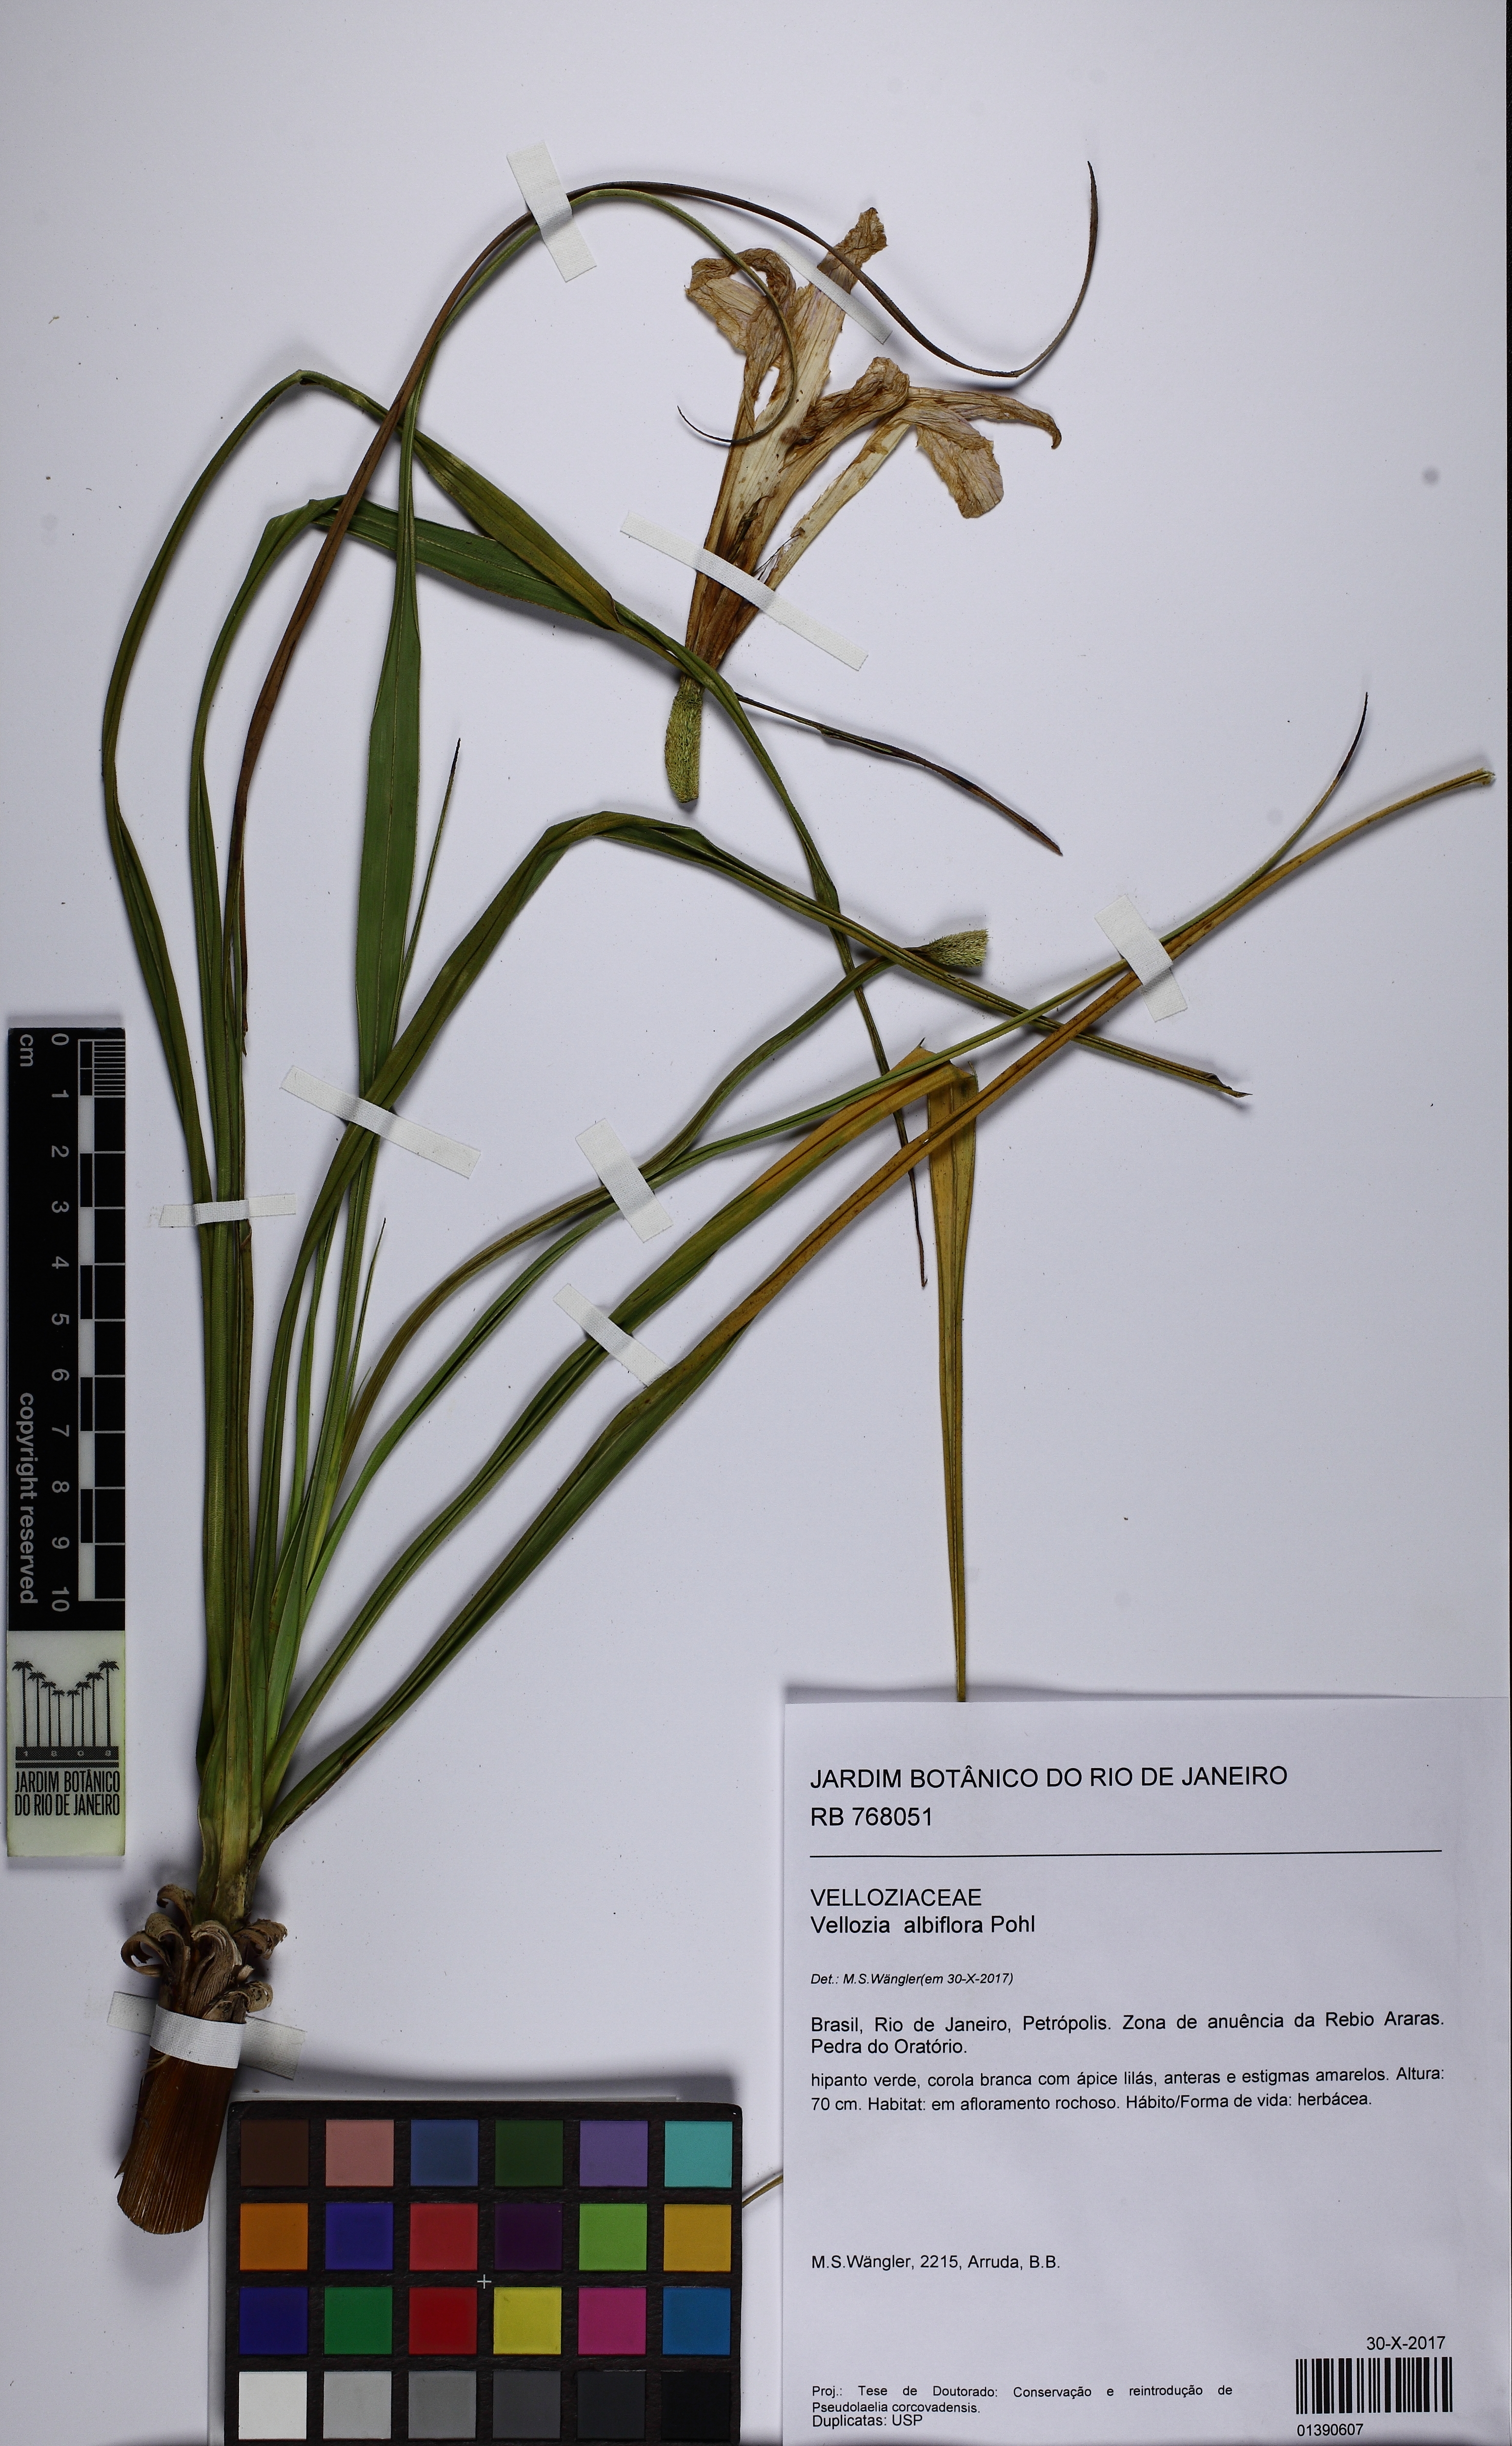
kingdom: Plantae
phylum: Tracheophyta
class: Liliopsida
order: Pandanales
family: Velloziaceae
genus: Vellozia
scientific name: Vellozia albiflora
